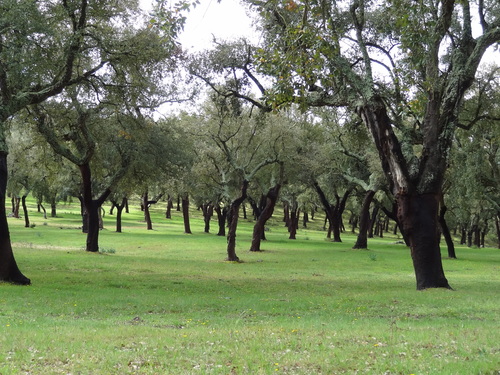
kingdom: Plantae
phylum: Tracheophyta
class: Magnoliopsida
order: Fagales
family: Fagaceae
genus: Quercus
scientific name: Quercus suber
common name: Cork oak
